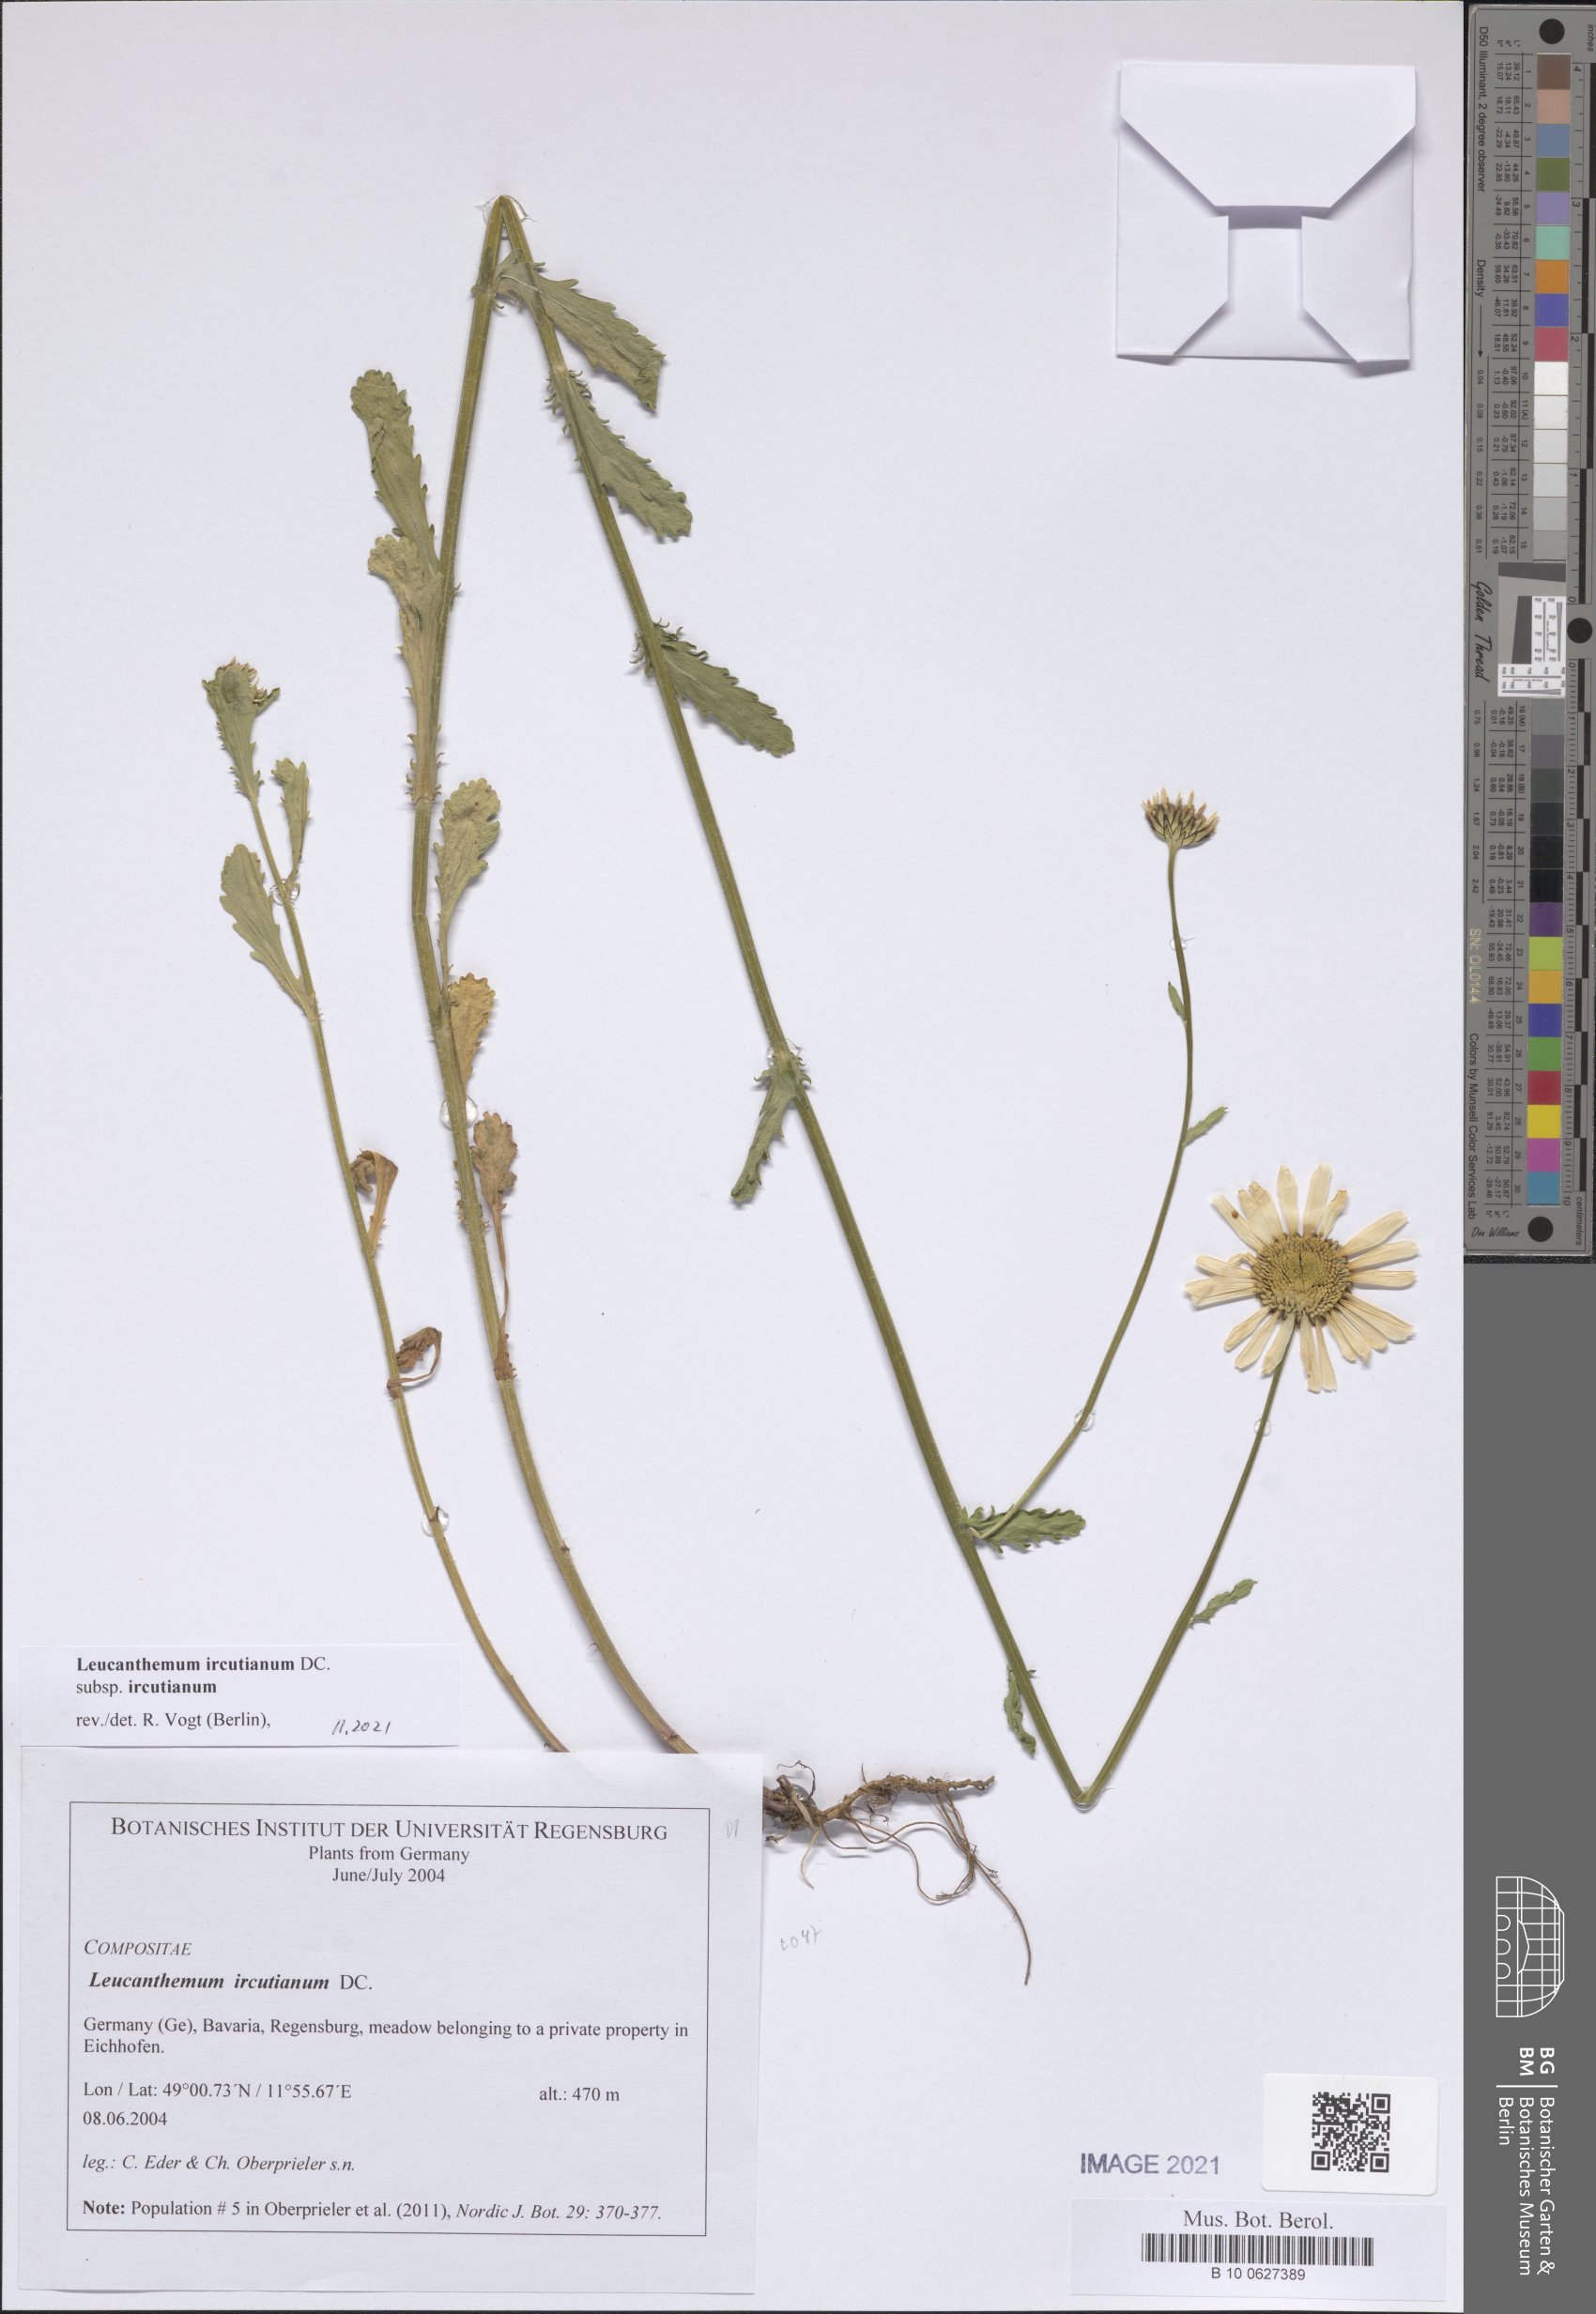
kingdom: Plantae
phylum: Tracheophyta
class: Magnoliopsida
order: Asterales
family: Asteraceae
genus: Leucanthemum
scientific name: Leucanthemum ircutianum
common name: Daisy
